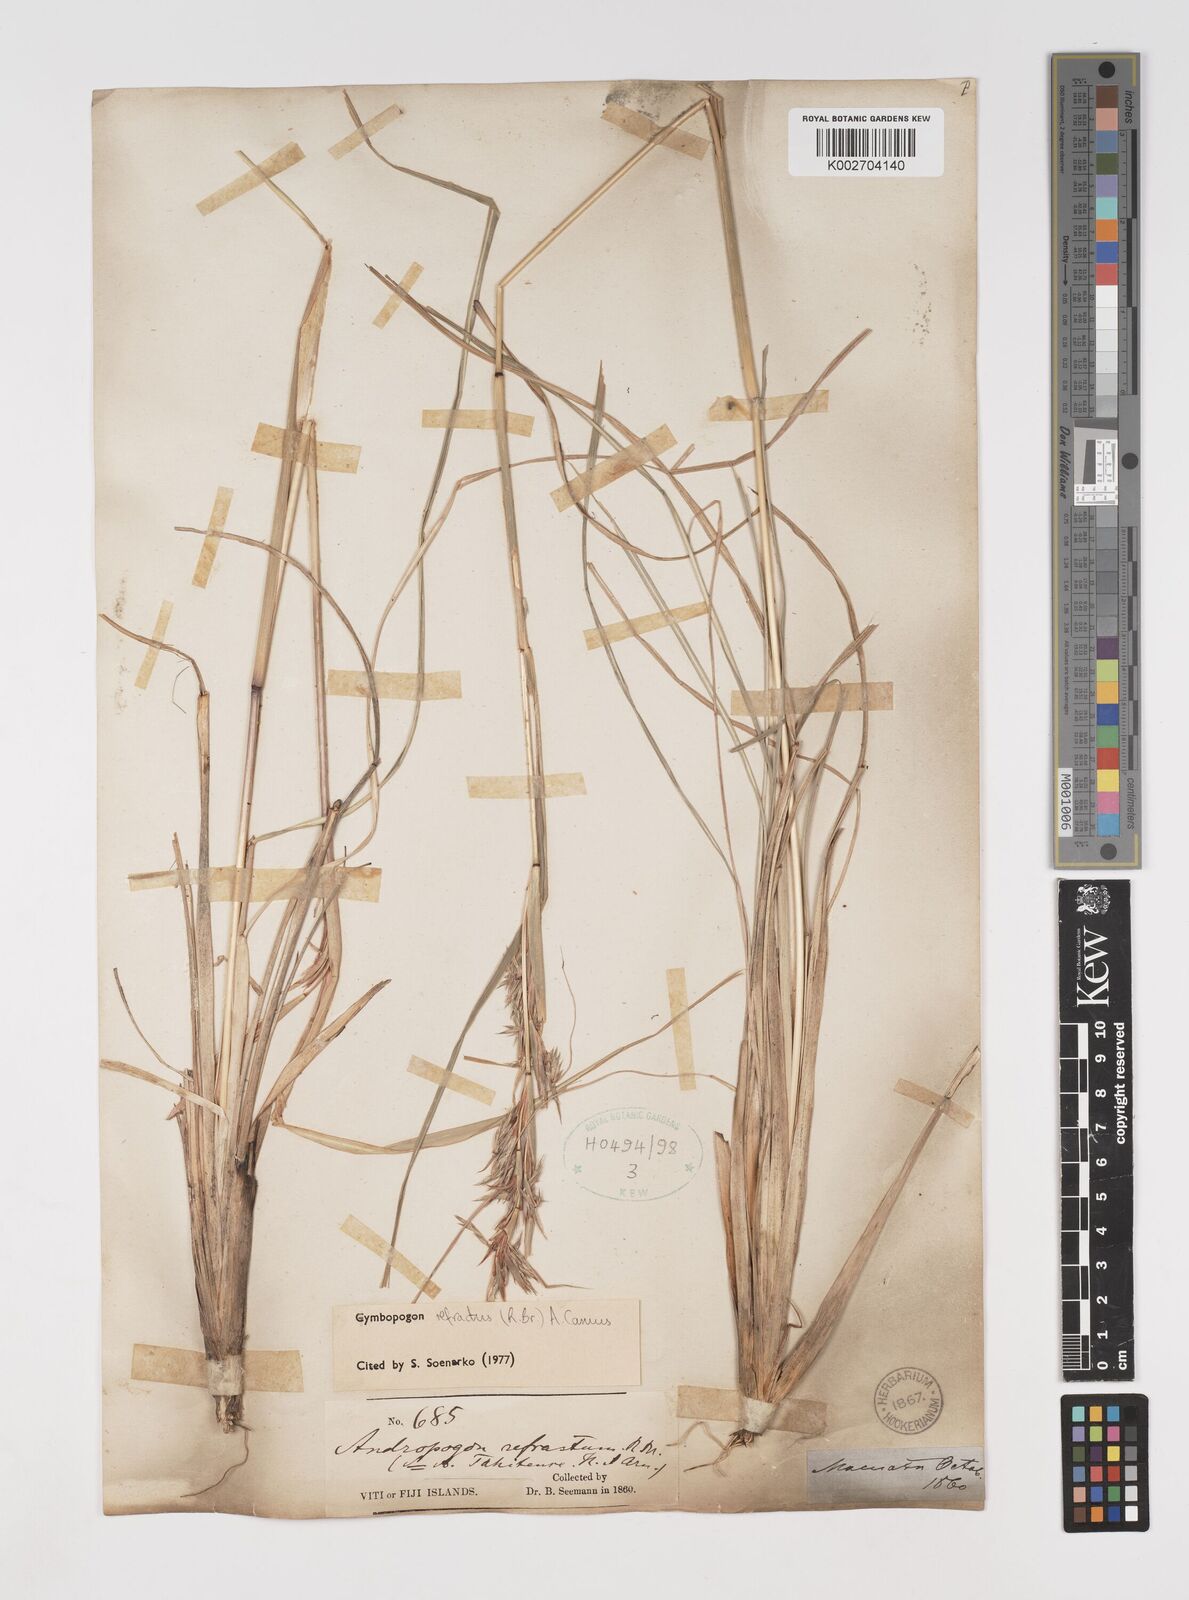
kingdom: Plantae
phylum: Tracheophyta
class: Liliopsida
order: Poales
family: Poaceae
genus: Cymbopogon
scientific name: Cymbopogon refractus
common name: Barbwire grass
